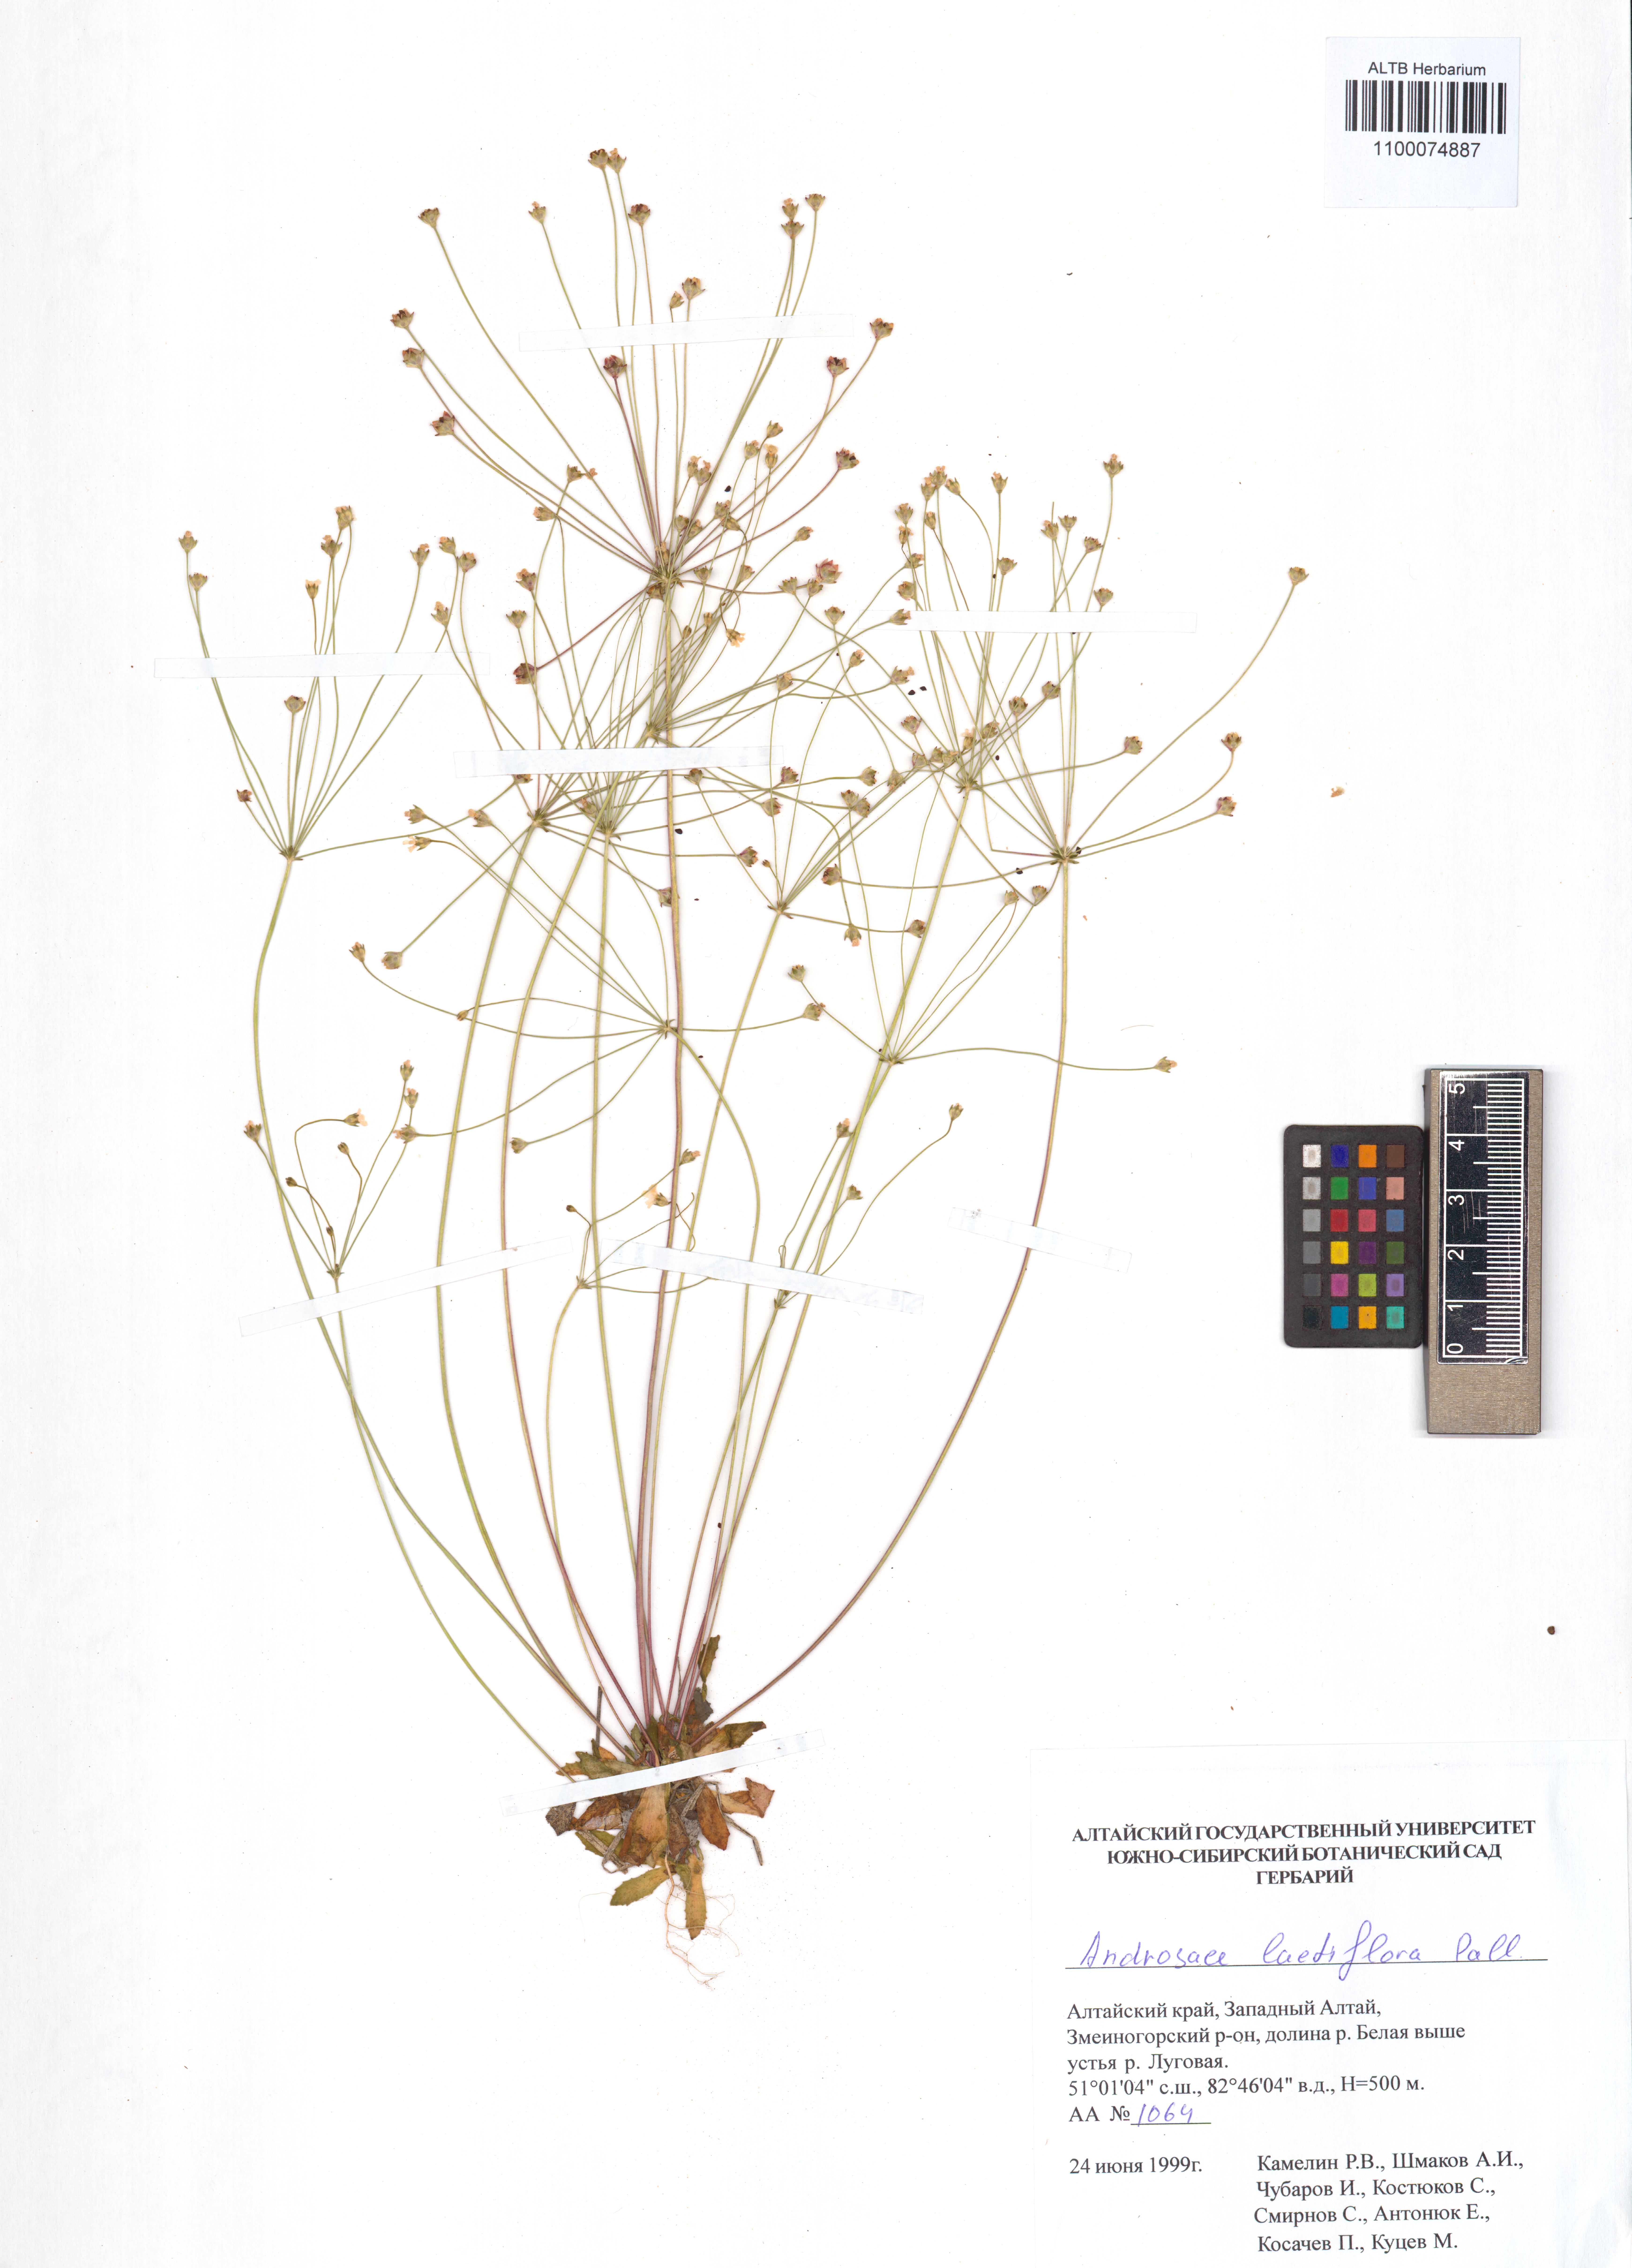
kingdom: Plantae
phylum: Tracheophyta
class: Magnoliopsida
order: Ericales
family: Primulaceae
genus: Androsace
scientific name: Androsace lactiflora
